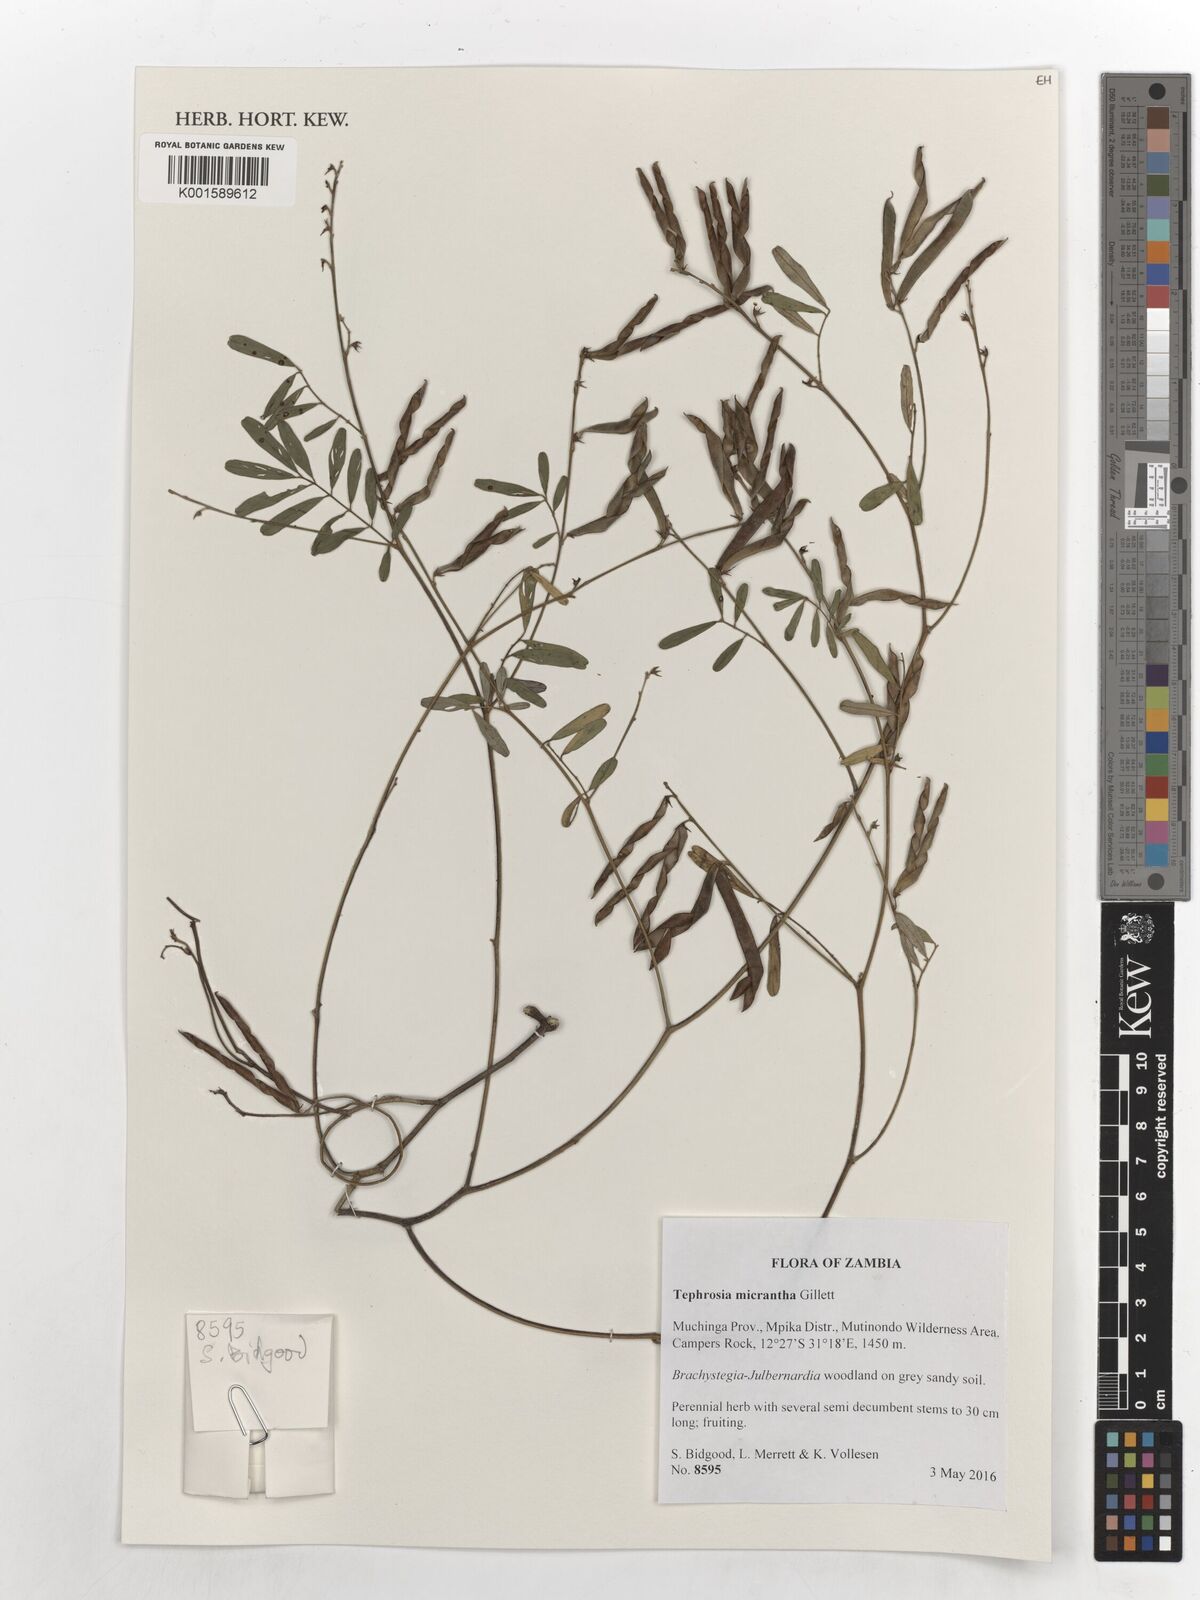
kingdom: Plantae
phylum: Tracheophyta
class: Magnoliopsida
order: Fabales
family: Fabaceae
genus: Tephrosia
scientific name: Tephrosia micrantha
